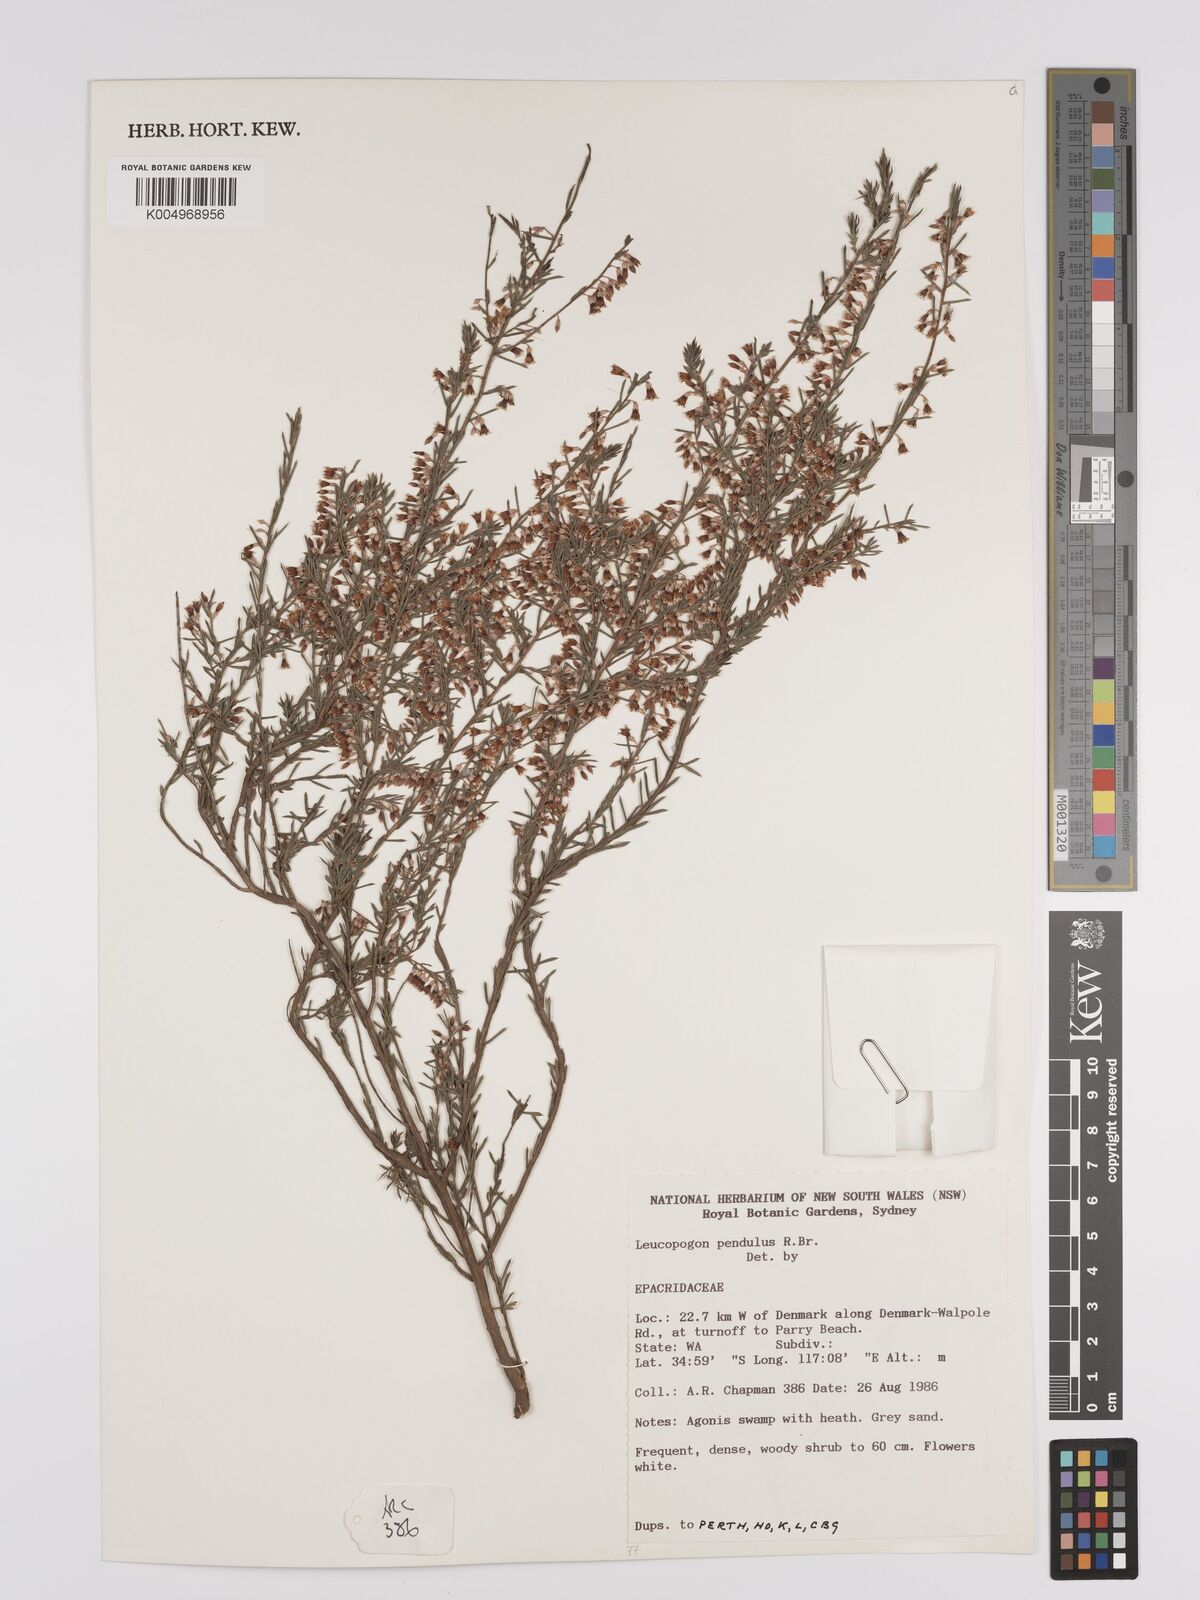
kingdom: Plantae
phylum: Tracheophyta
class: Magnoliopsida
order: Ericales
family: Ericaceae
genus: Styphelia
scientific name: Styphelia pendula
